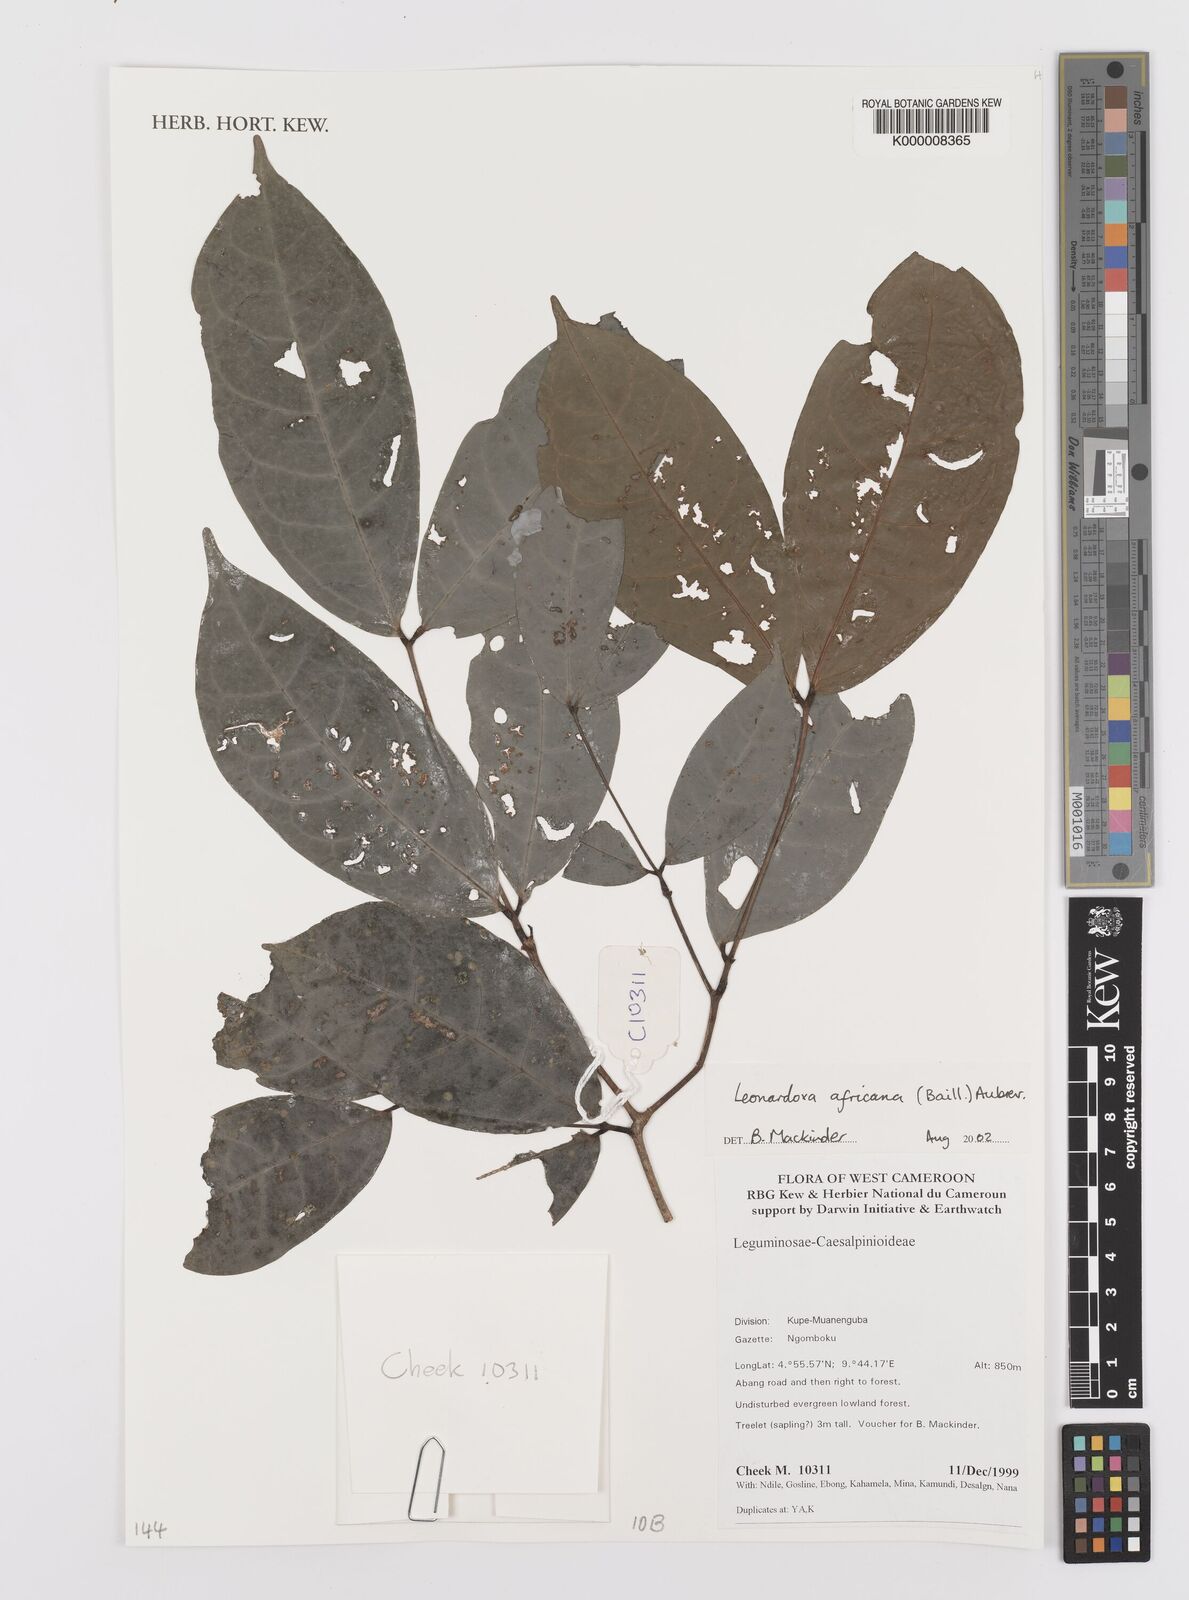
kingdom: Plantae
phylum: Tracheophyta
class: Magnoliopsida
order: Fabales
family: Fabaceae
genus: Leonardoxa
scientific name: Leonardoxa
